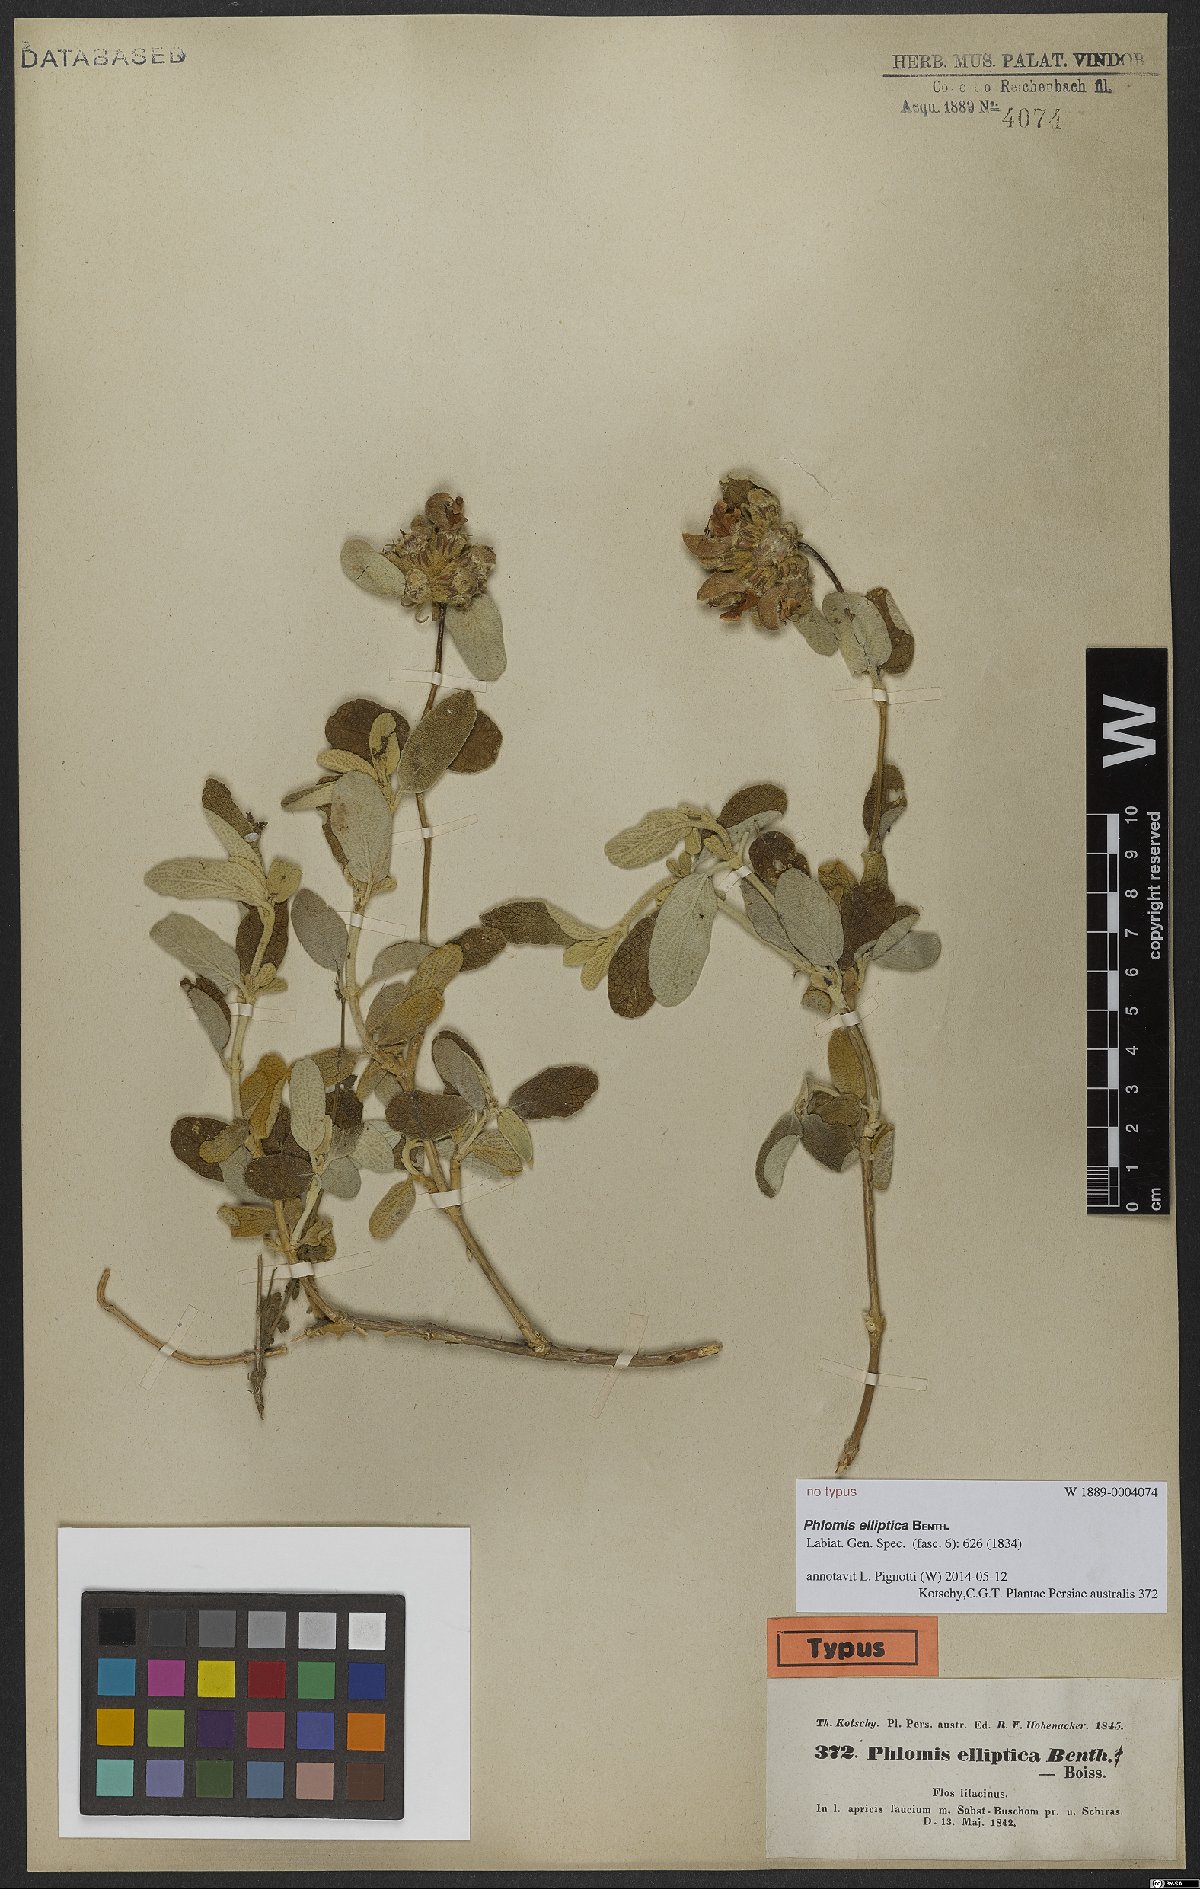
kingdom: Plantae
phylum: Tracheophyta
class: Magnoliopsida
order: Lamiales
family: Lamiaceae
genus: Phlomis
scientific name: Phlomis elliptica
